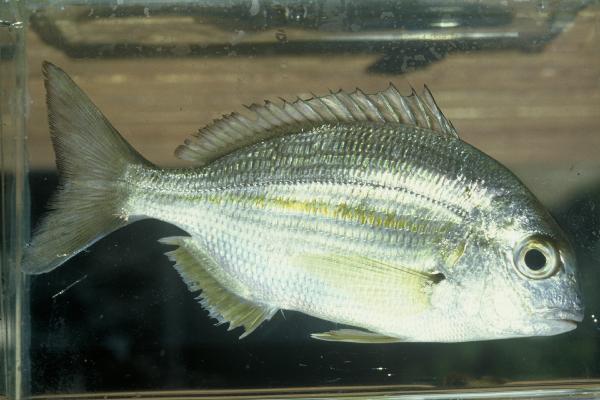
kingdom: Animalia
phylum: Chordata
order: Perciformes
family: Sparidae
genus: Rhabdosargus
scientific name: Rhabdosargus holubi
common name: Cape stumpnose
